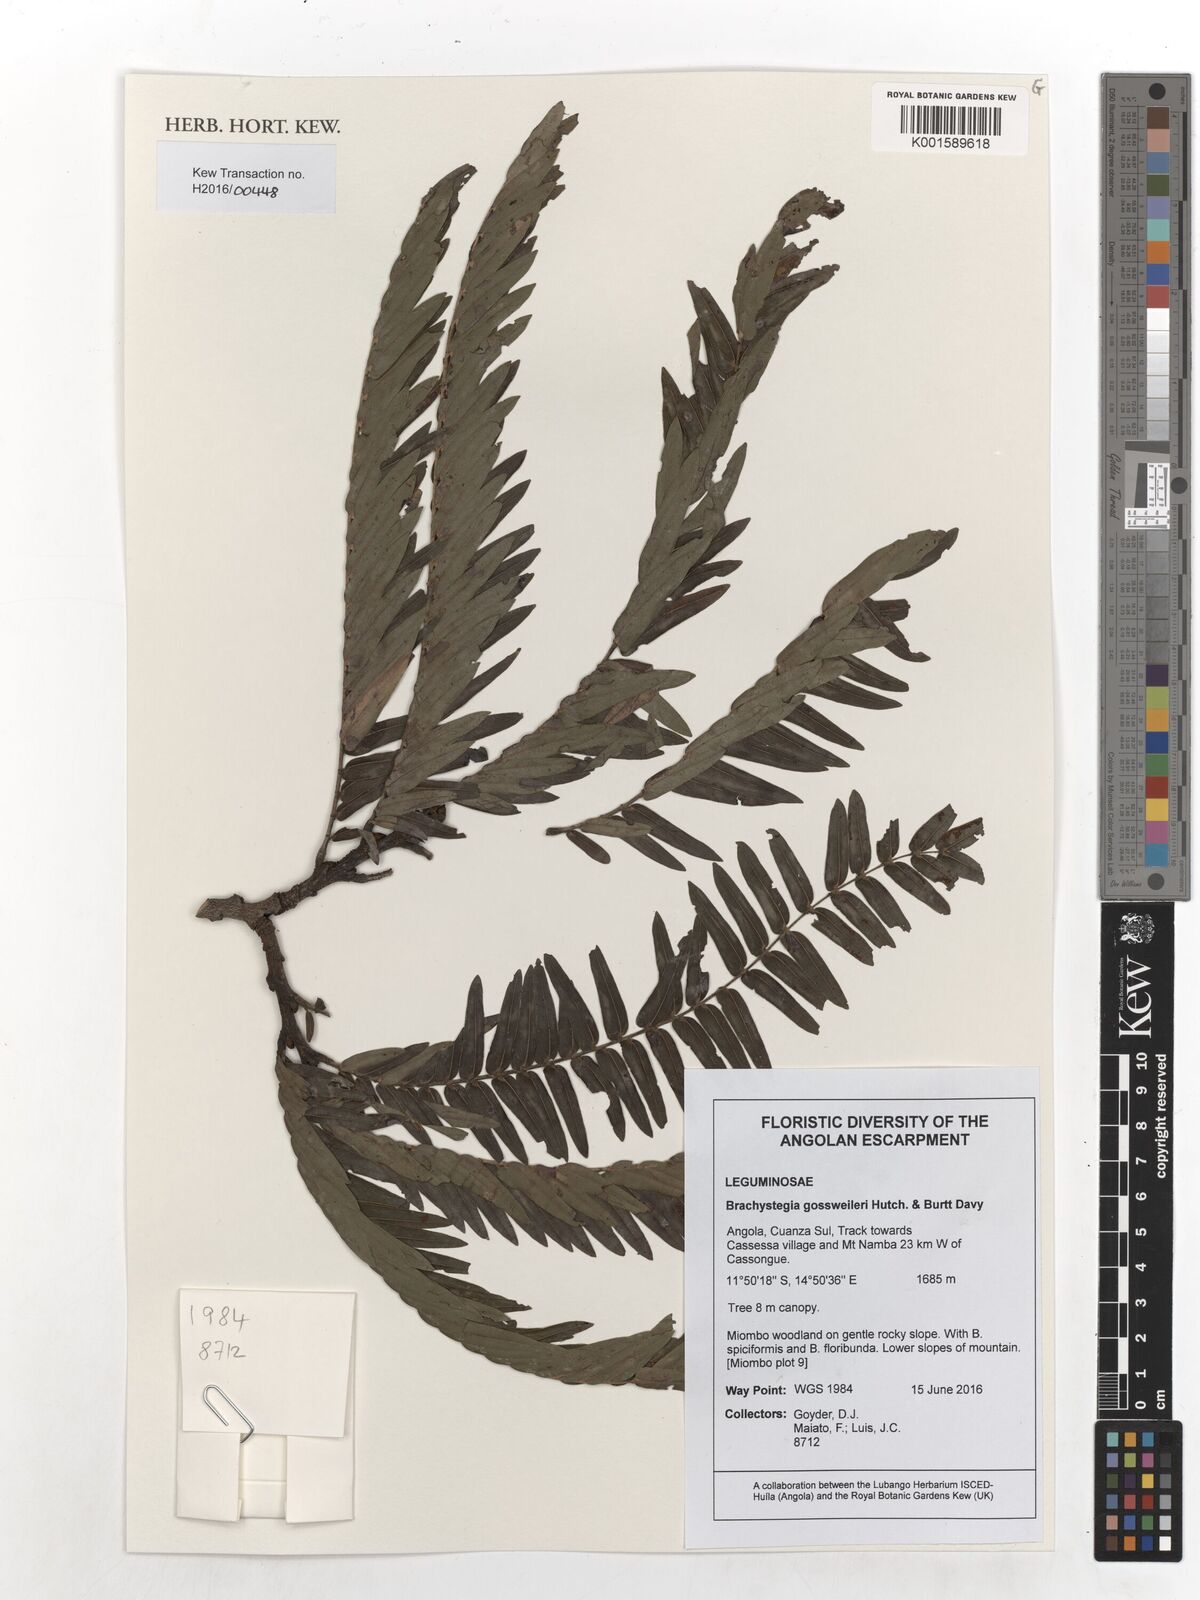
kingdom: Plantae
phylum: Tracheophyta
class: Magnoliopsida
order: Fabales
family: Fabaceae
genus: Brachystegia
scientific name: Brachystegia gossweileri
